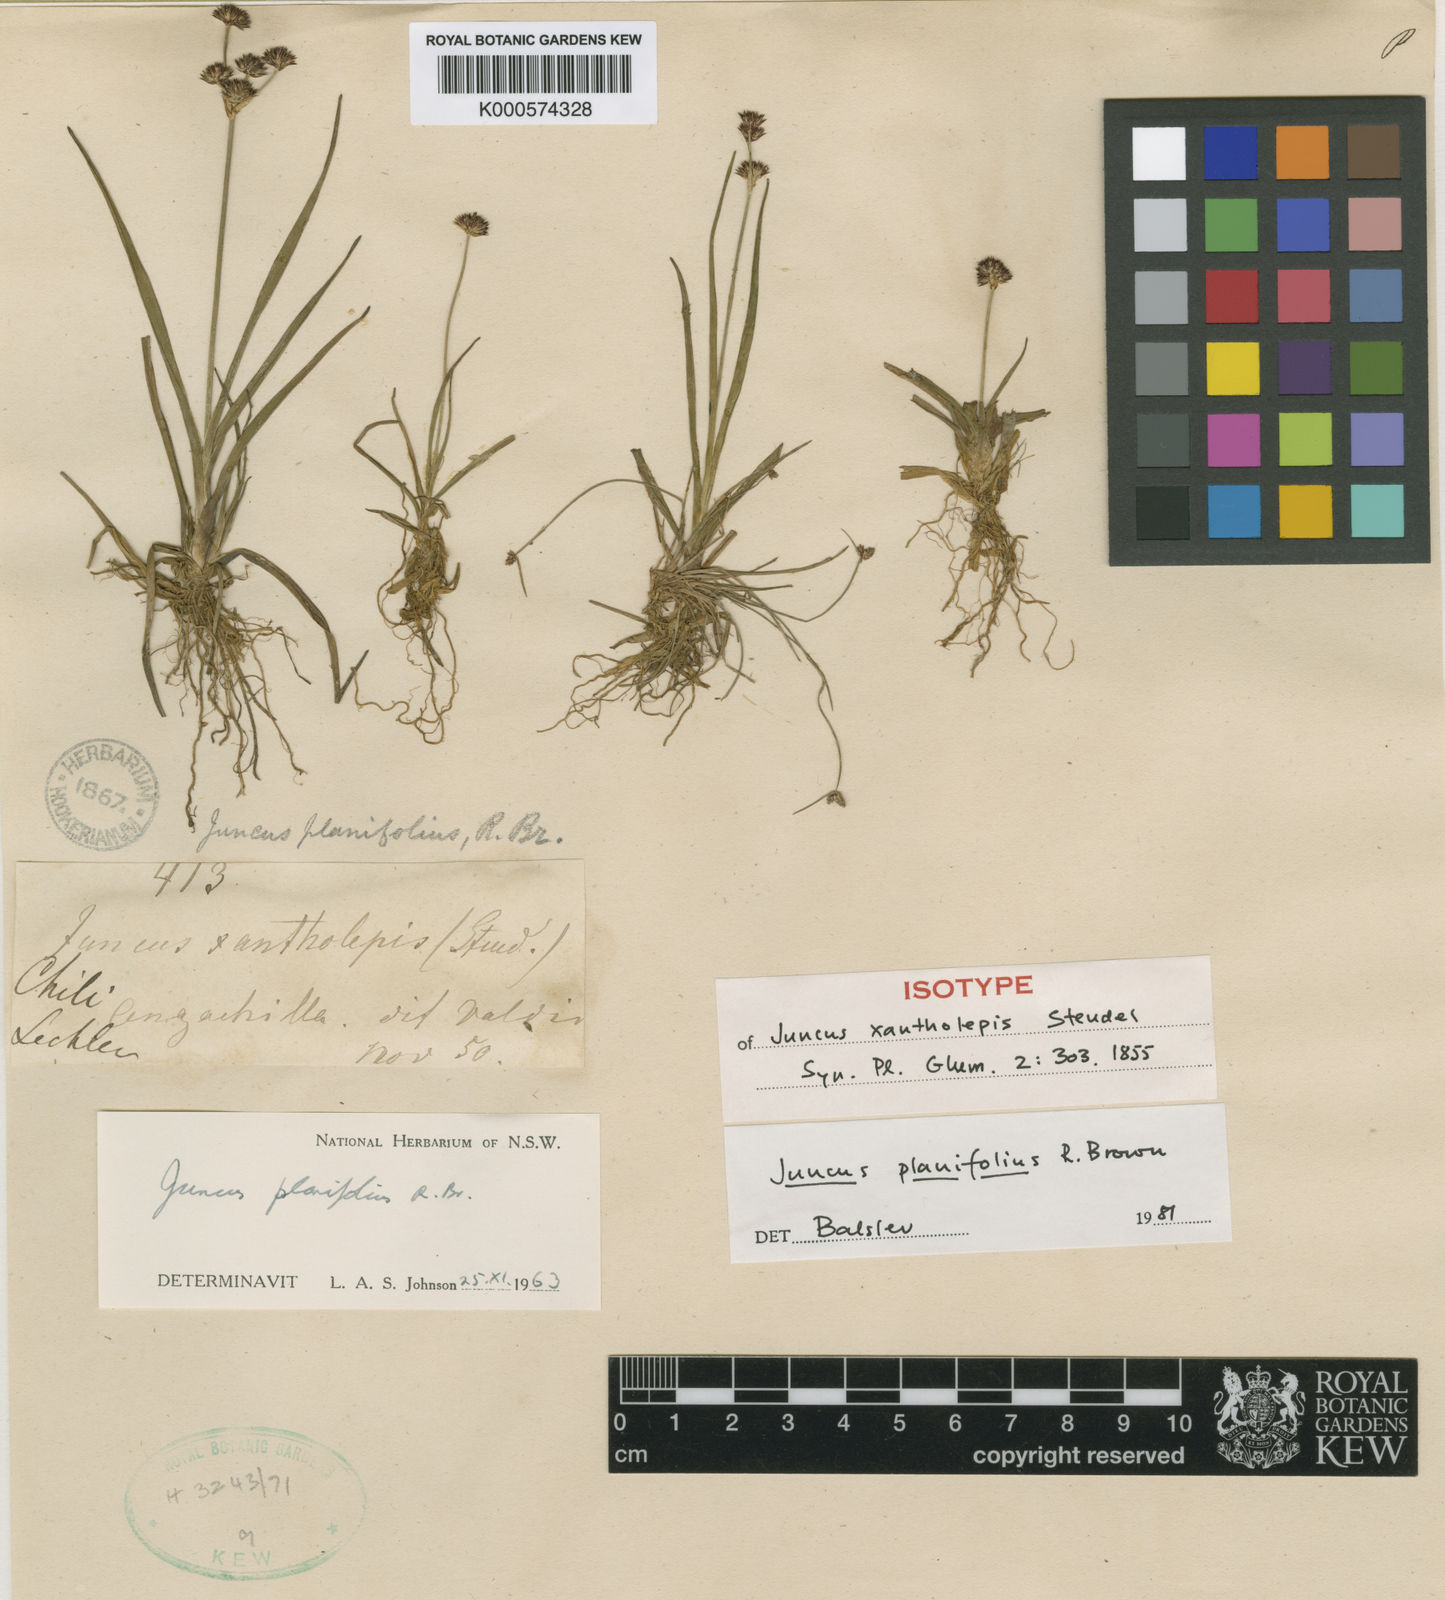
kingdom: Plantae
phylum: Tracheophyta
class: Liliopsida
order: Poales
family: Juncaceae
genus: Juncus
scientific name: Juncus planifolius
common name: Broadleaf rush
